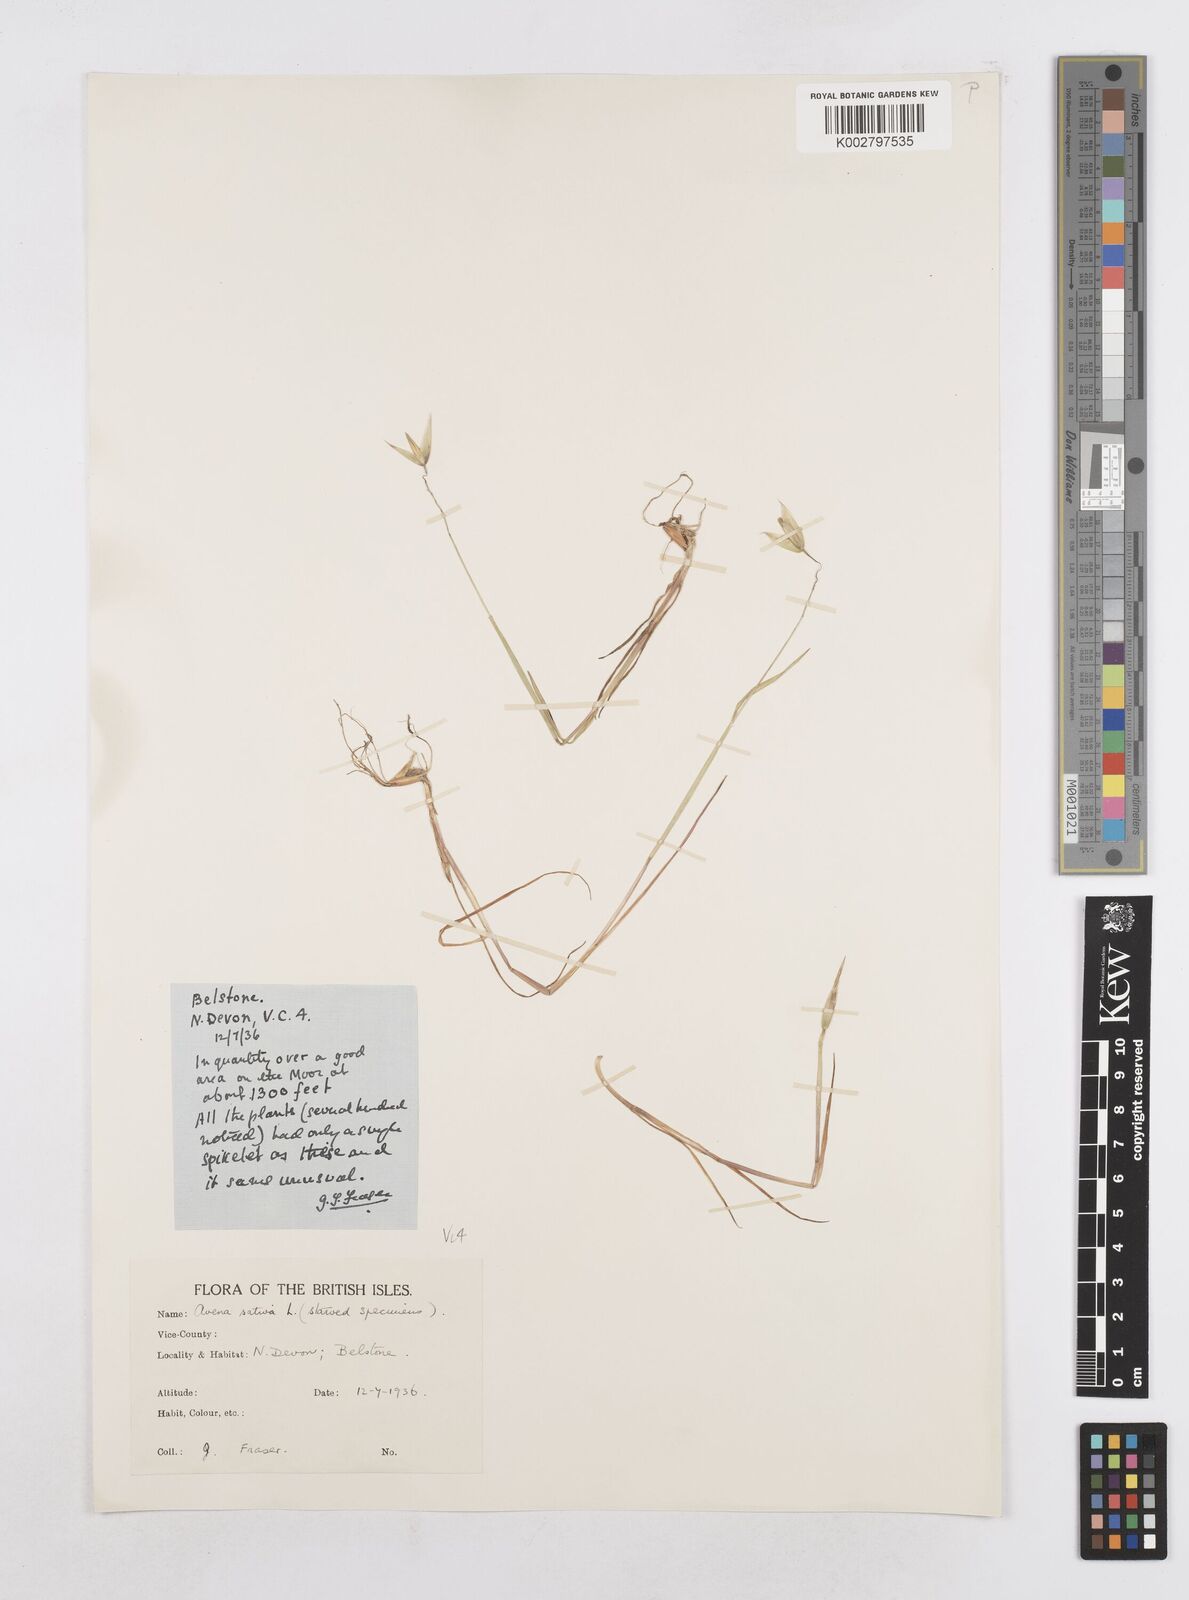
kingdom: Plantae
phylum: Tracheophyta
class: Liliopsida
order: Poales
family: Poaceae
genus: Avena
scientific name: Avena sativa
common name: Oat
